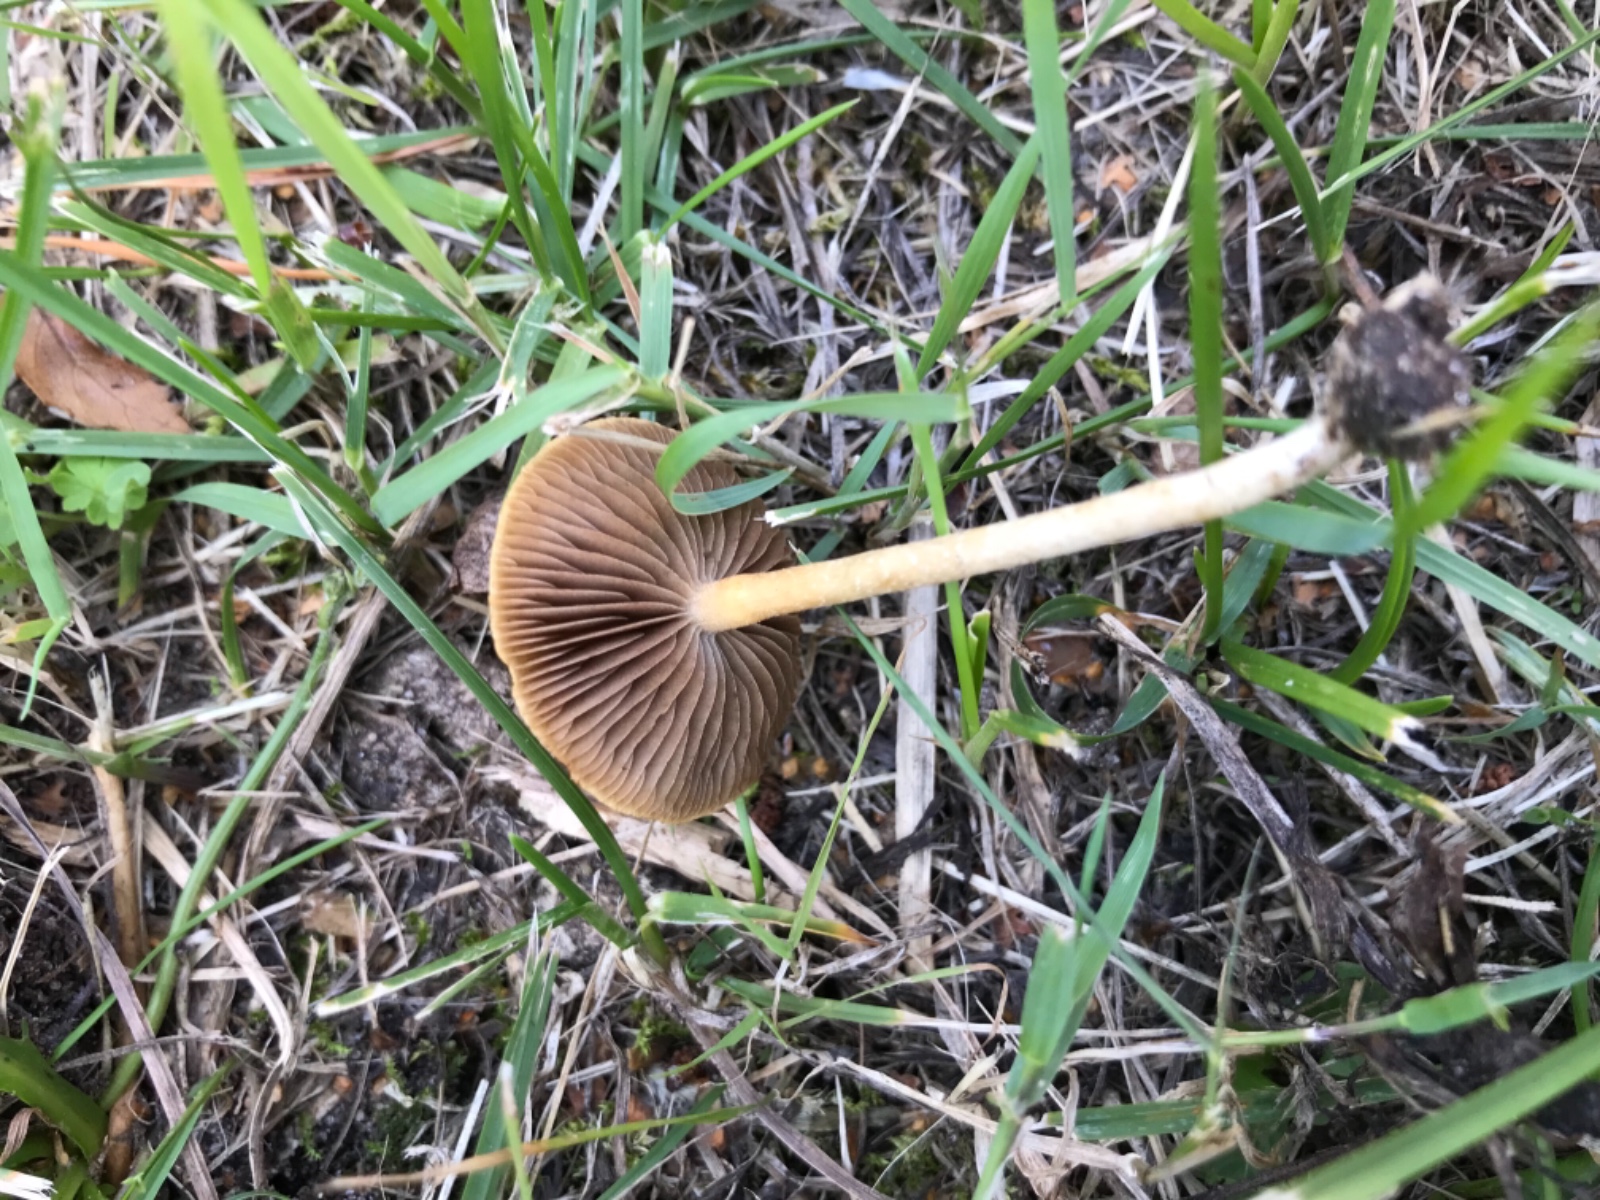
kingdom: Fungi
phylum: Basidiomycota
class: Agaricomycetes
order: Agaricales
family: Strophariaceae
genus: Agrocybe
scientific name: Agrocybe pediades
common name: almindelig agerhat
